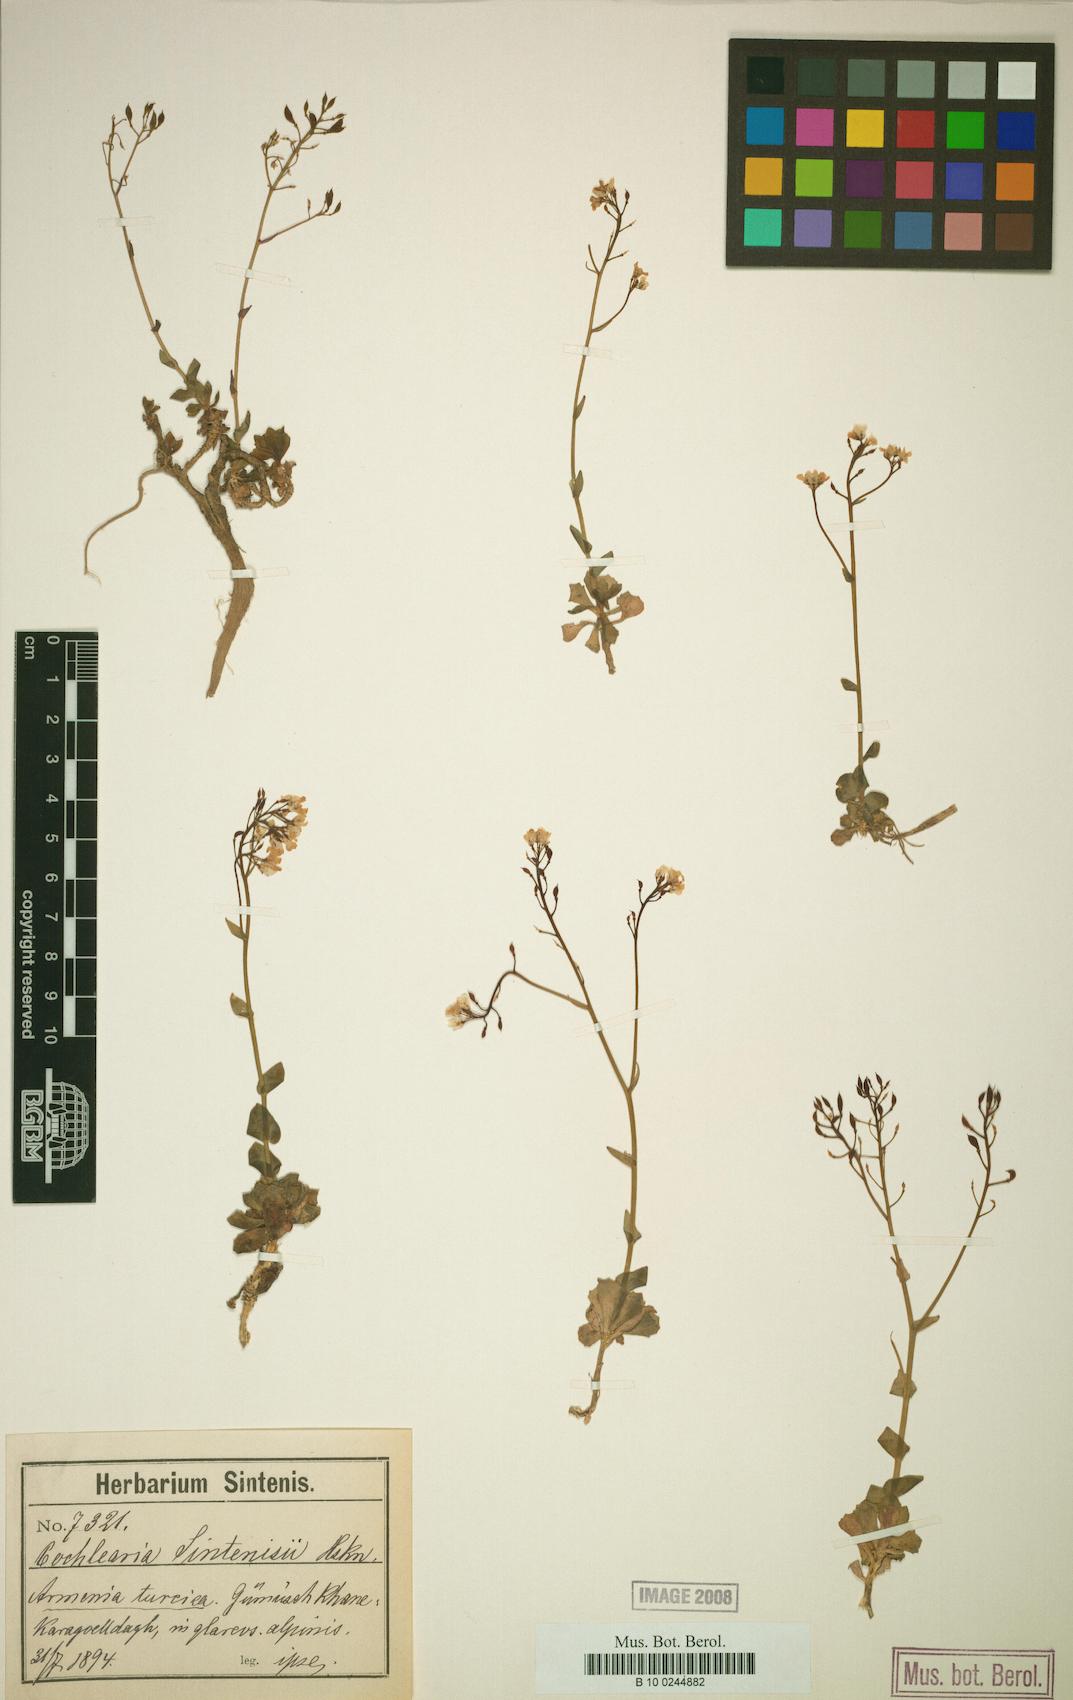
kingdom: Plantae
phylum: Tracheophyta
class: Magnoliopsida
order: Brassicales
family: Brassicaceae
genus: Pseudosempervivum
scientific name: Pseudosempervivum sintenisii
